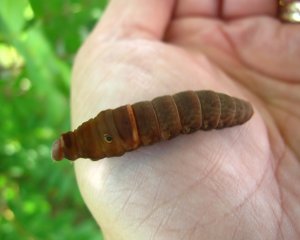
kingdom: Animalia
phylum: Arthropoda
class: Insecta
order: Lepidoptera
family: Papilionidae
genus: Pterourus
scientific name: Pterourus canadensis
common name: Canadian Tiger Swallowtail
